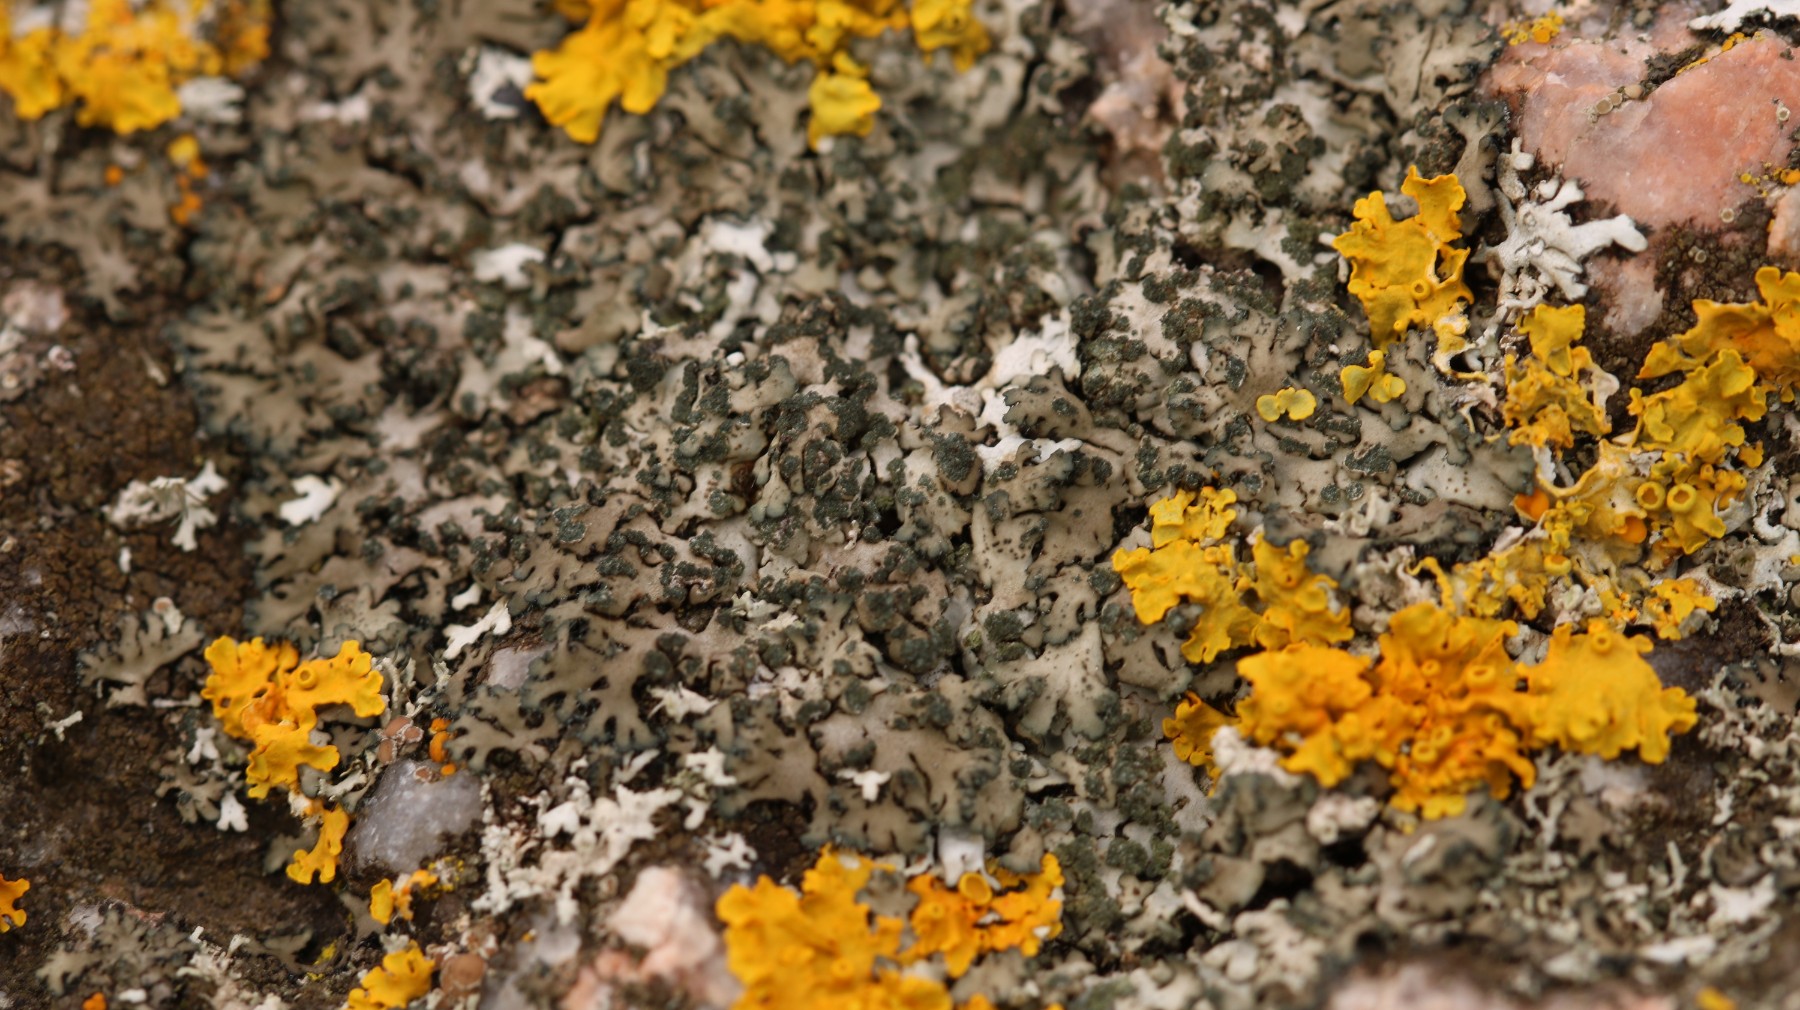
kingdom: Fungi
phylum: Ascomycota
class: Lecanoromycetes
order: Caliciales
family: Physciaceae
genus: Phaeophyscia
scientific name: Phaeophyscia orbicularis
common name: grågrøn rosetlav
